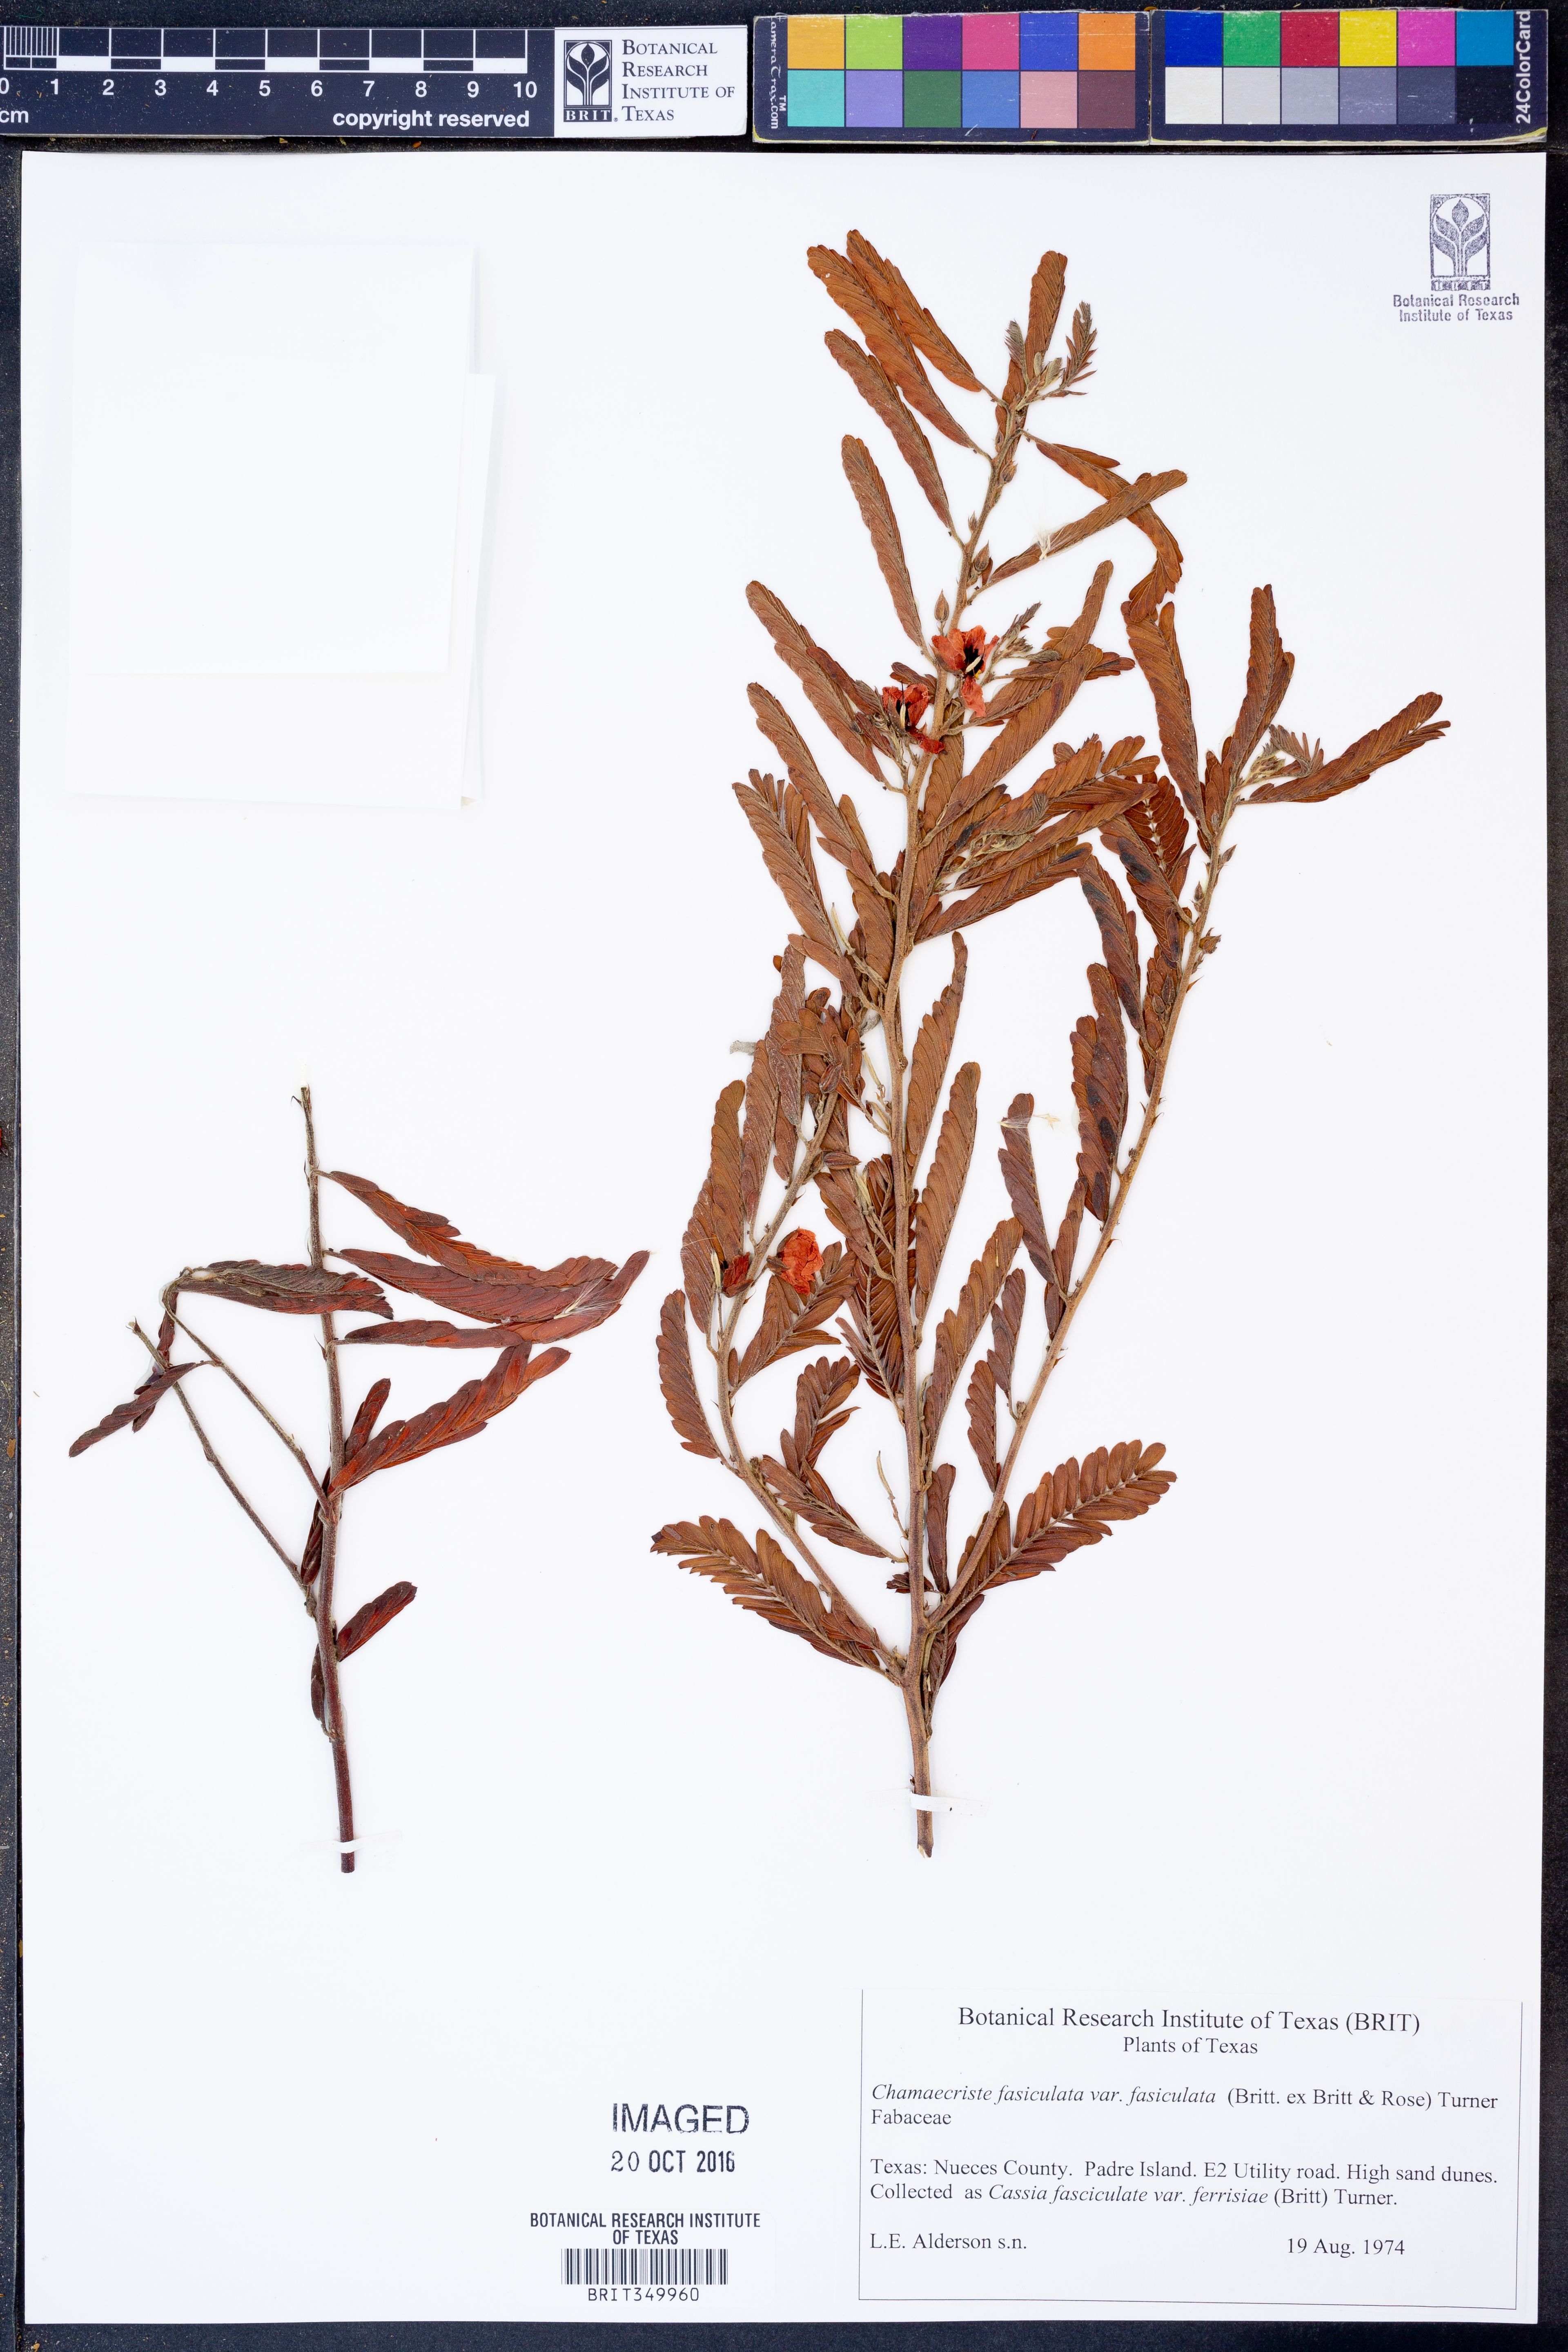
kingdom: Plantae
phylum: Tracheophyta
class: Magnoliopsida
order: Fabales
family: Fabaceae
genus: Chamaecrista
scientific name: Chamaecrista fasciculata
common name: Golden cassia
